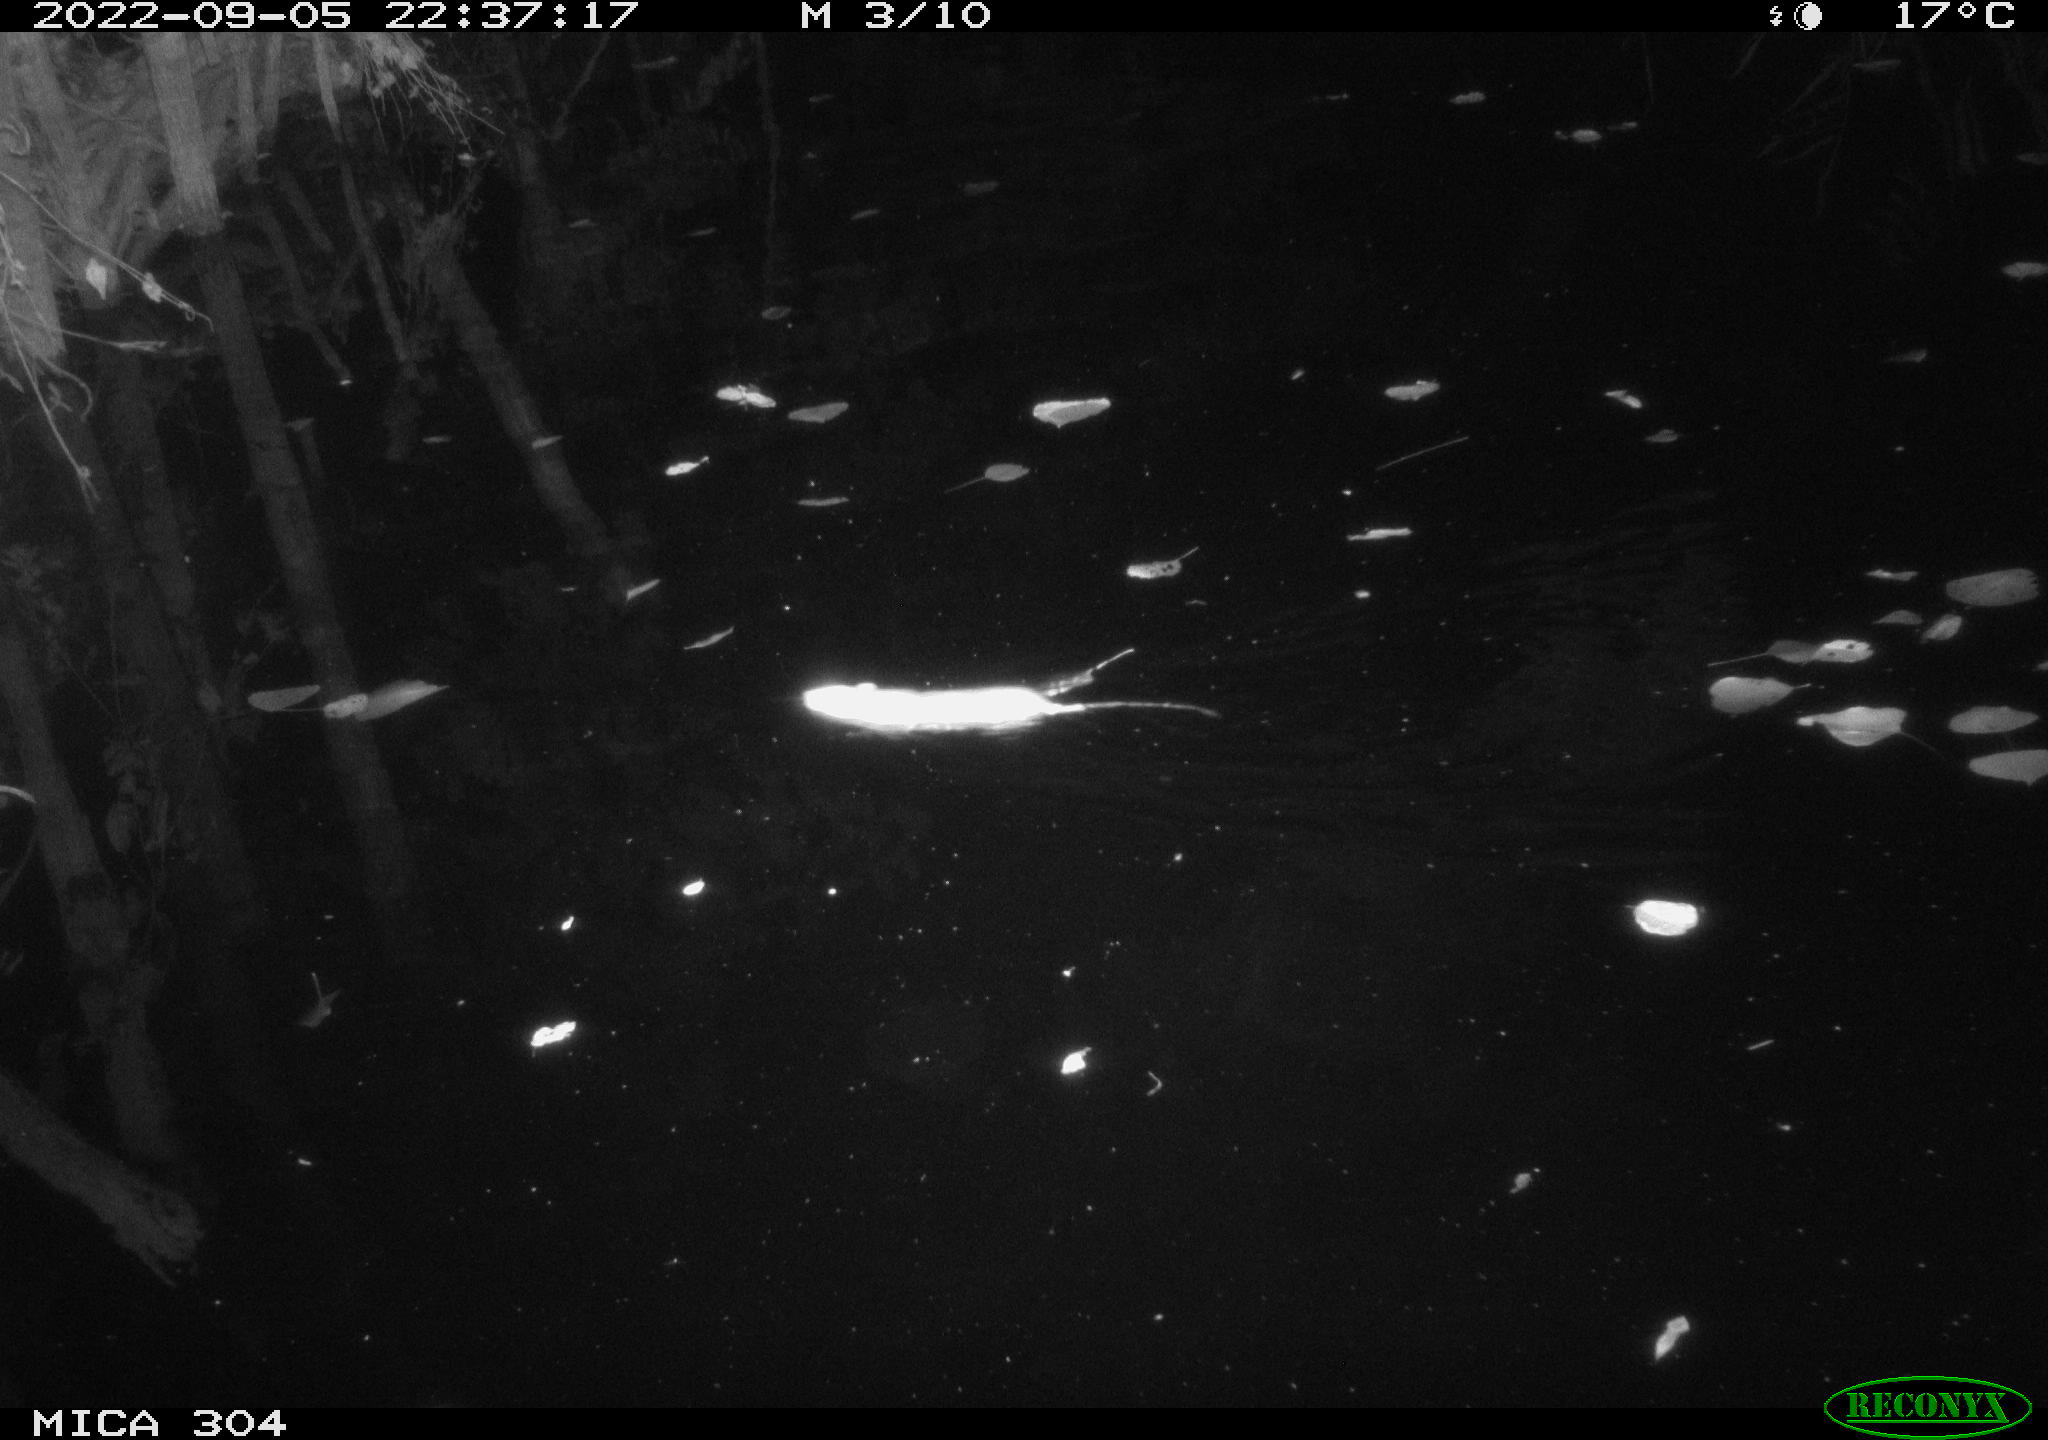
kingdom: Animalia
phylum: Chordata
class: Mammalia
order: Rodentia
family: Muridae
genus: Rattus
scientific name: Rattus norvegicus
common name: Brown rat
